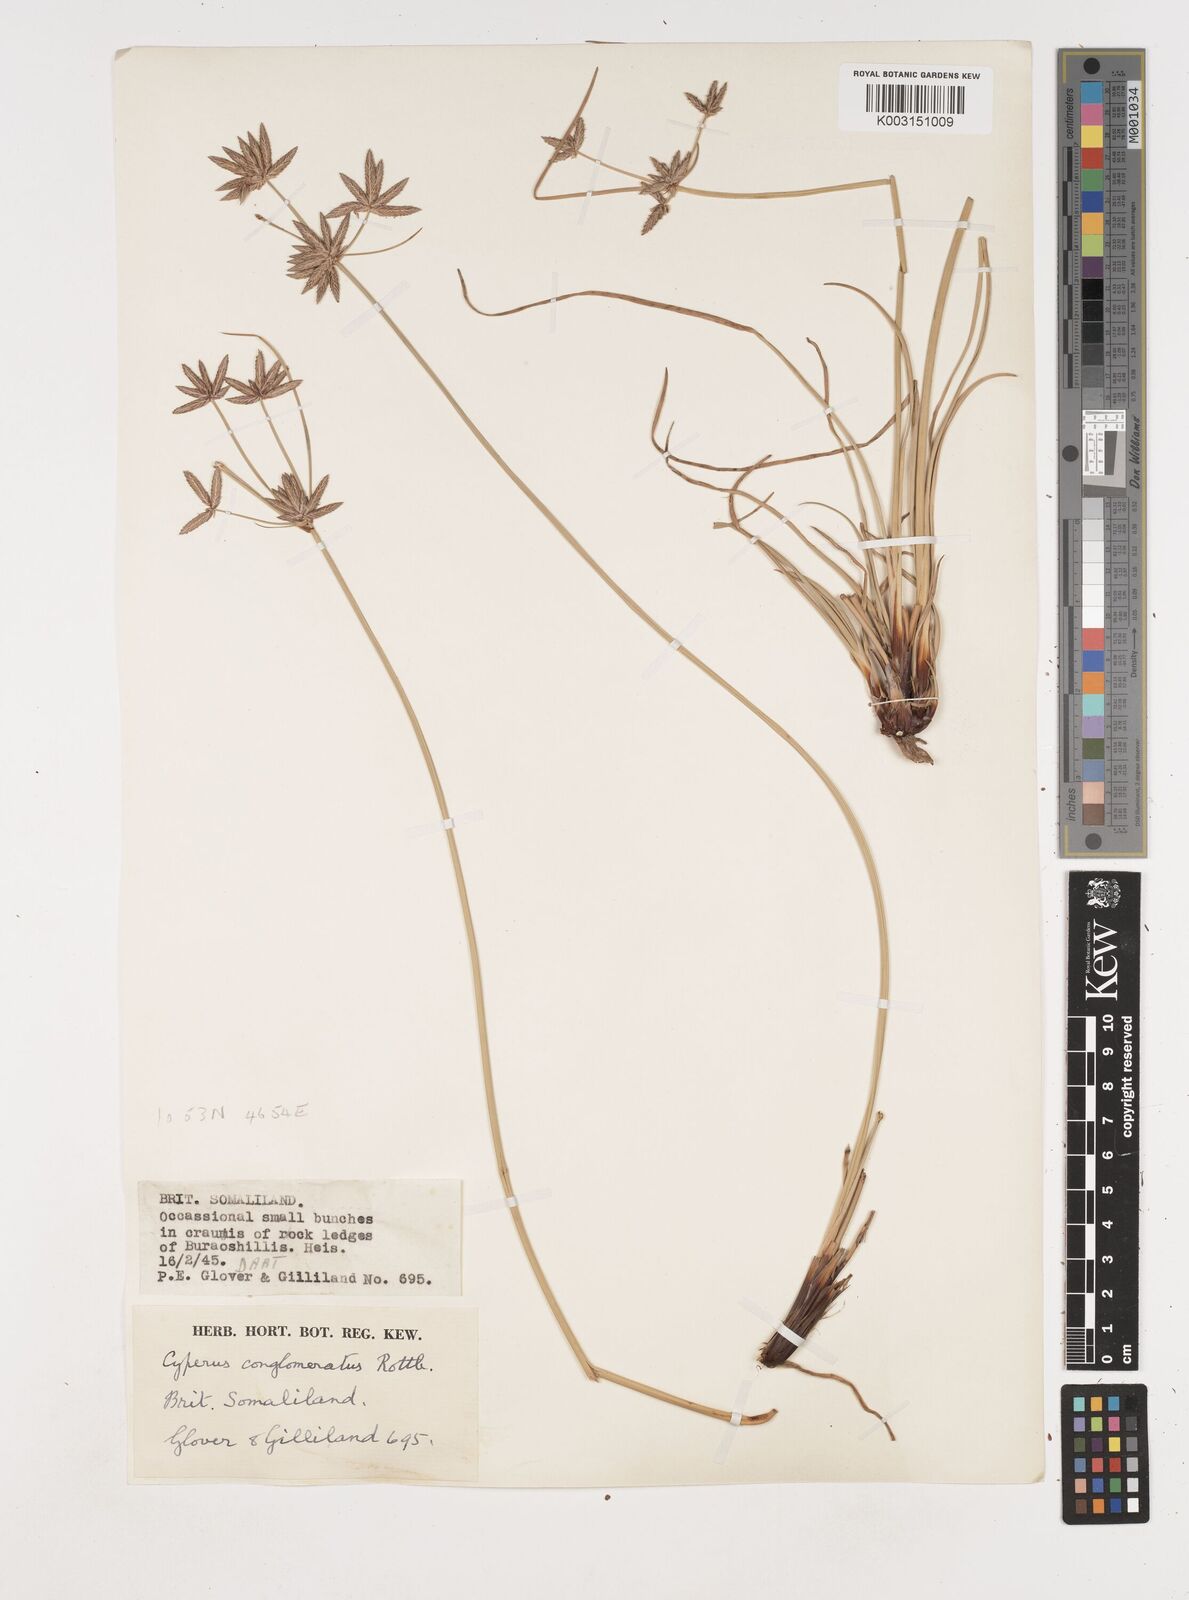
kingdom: Plantae
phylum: Tracheophyta
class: Liliopsida
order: Poales
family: Cyperaceae
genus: Cyperus
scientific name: Cyperus conglomeratus
